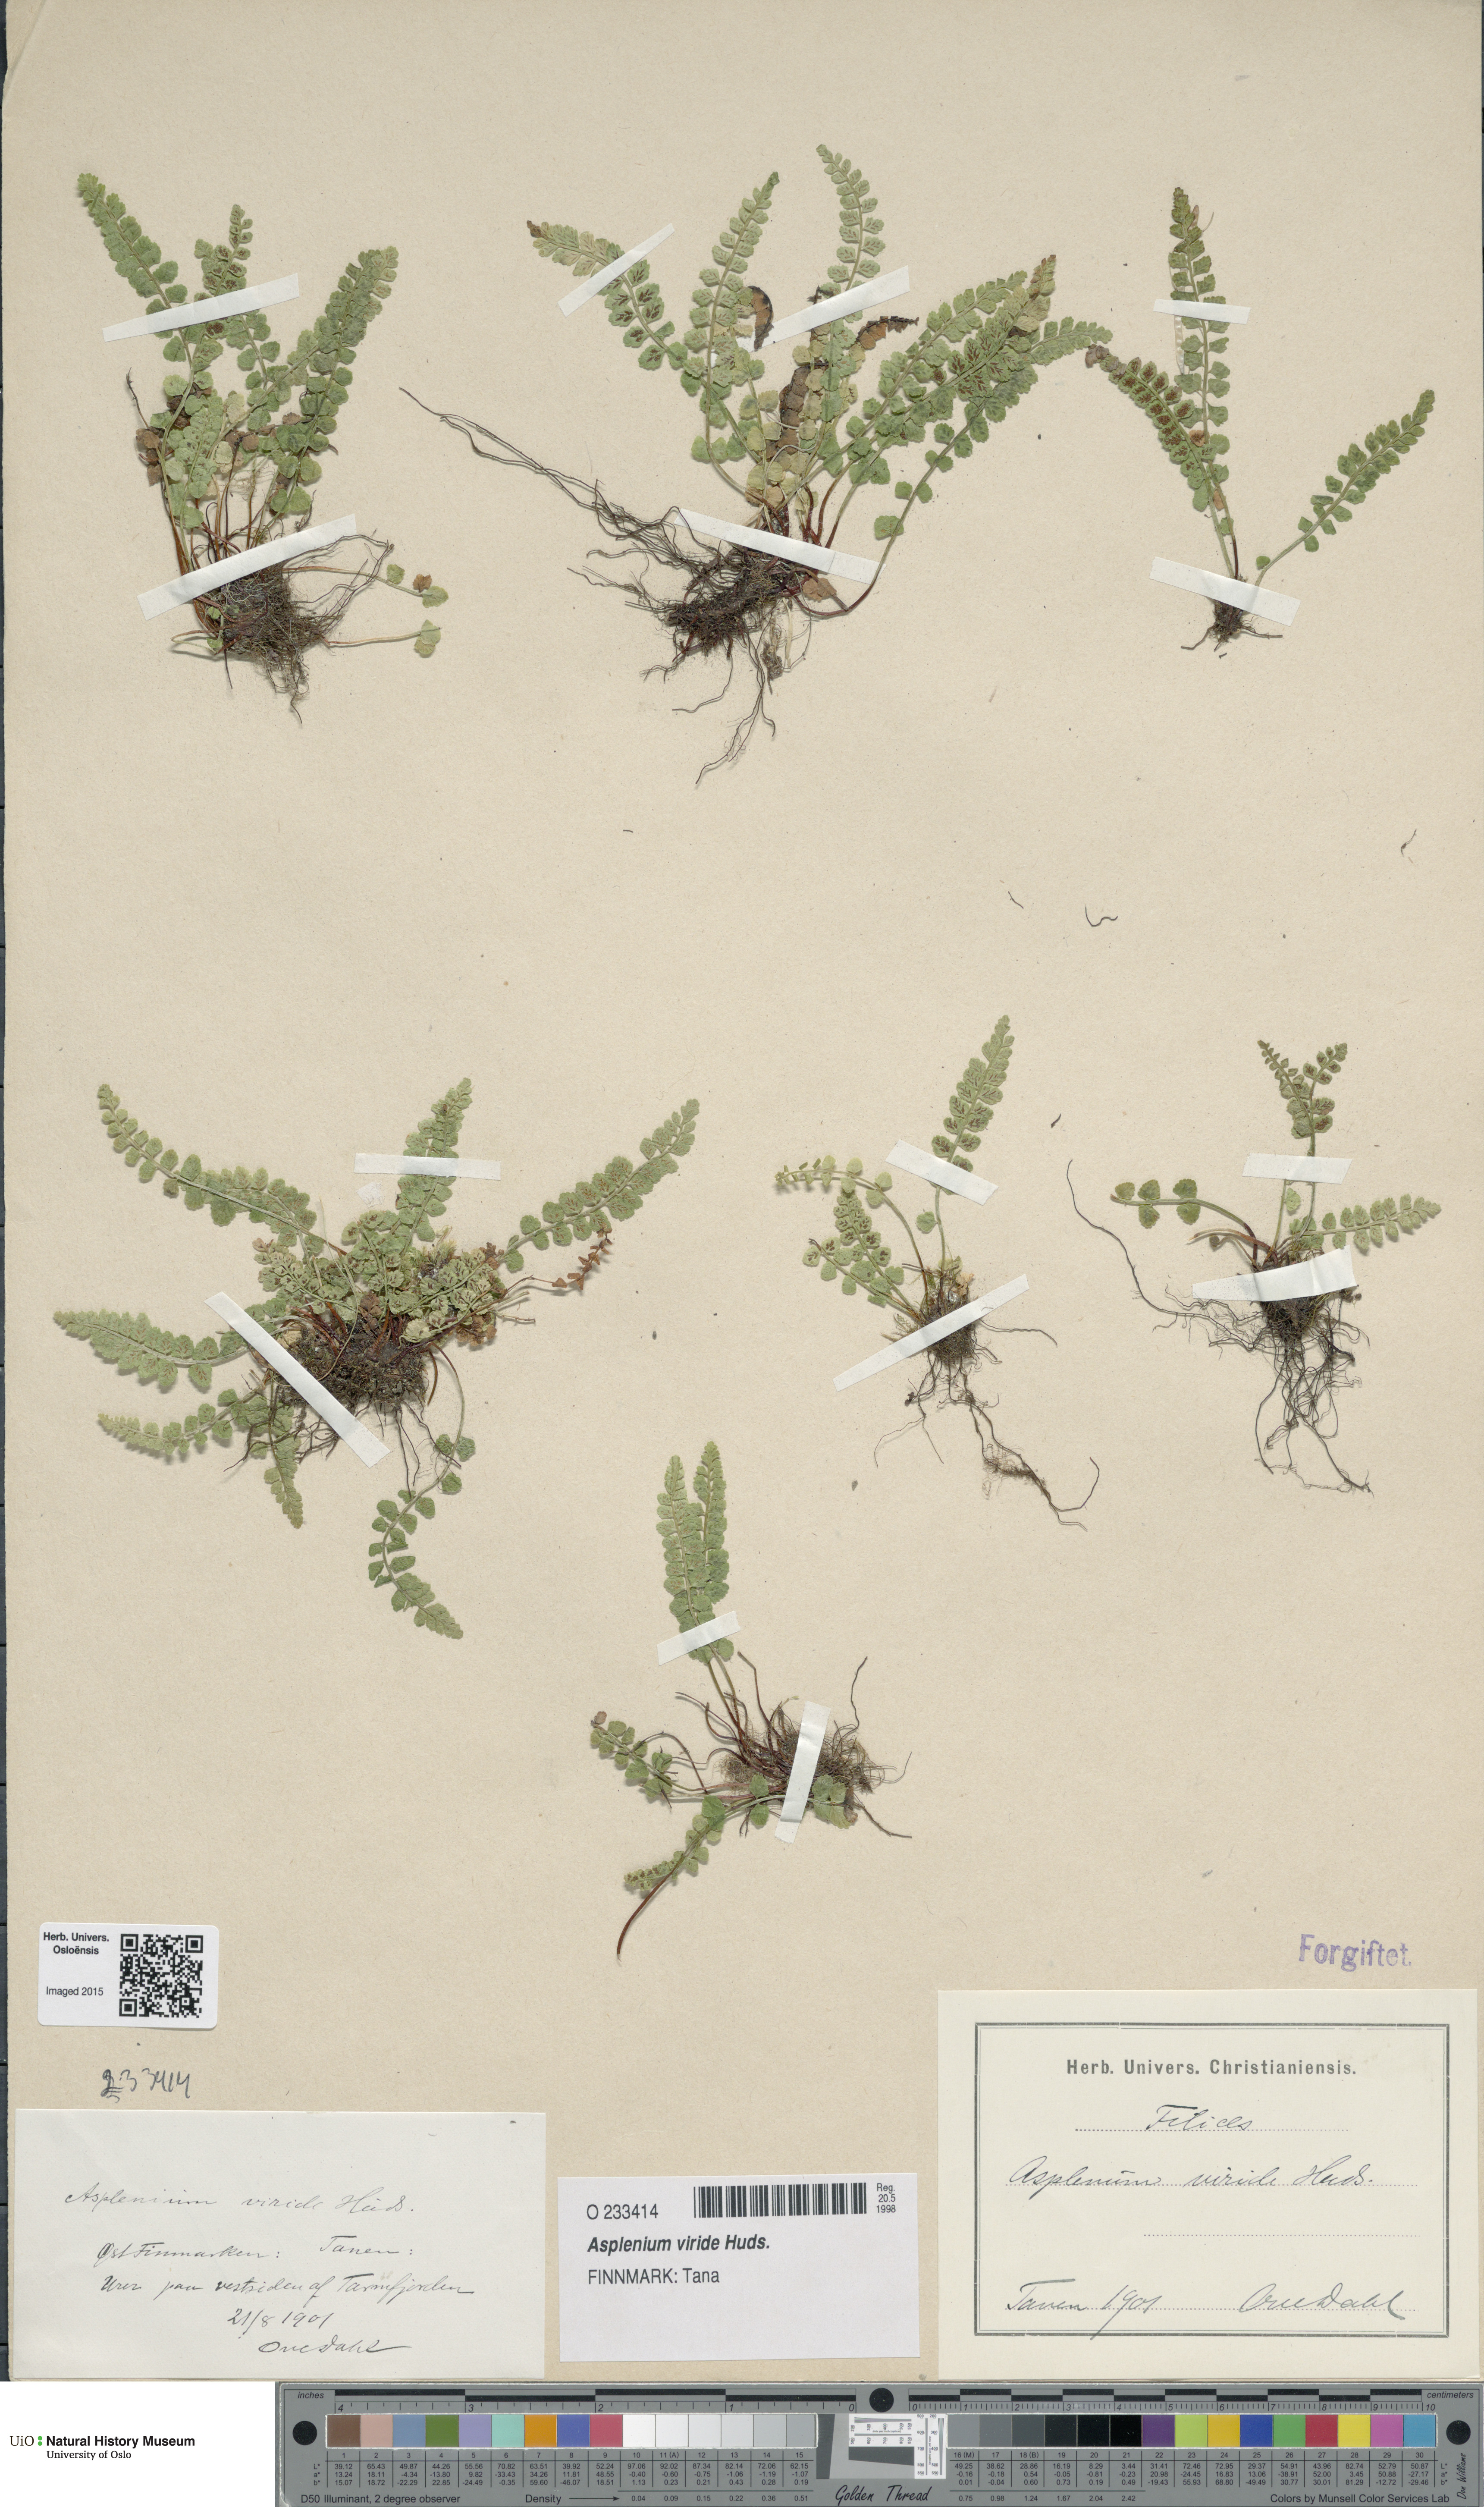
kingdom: Plantae
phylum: Tracheophyta
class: Polypodiopsida
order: Polypodiales
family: Aspleniaceae
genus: Asplenium
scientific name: Asplenium viride
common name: Green spleenwort
